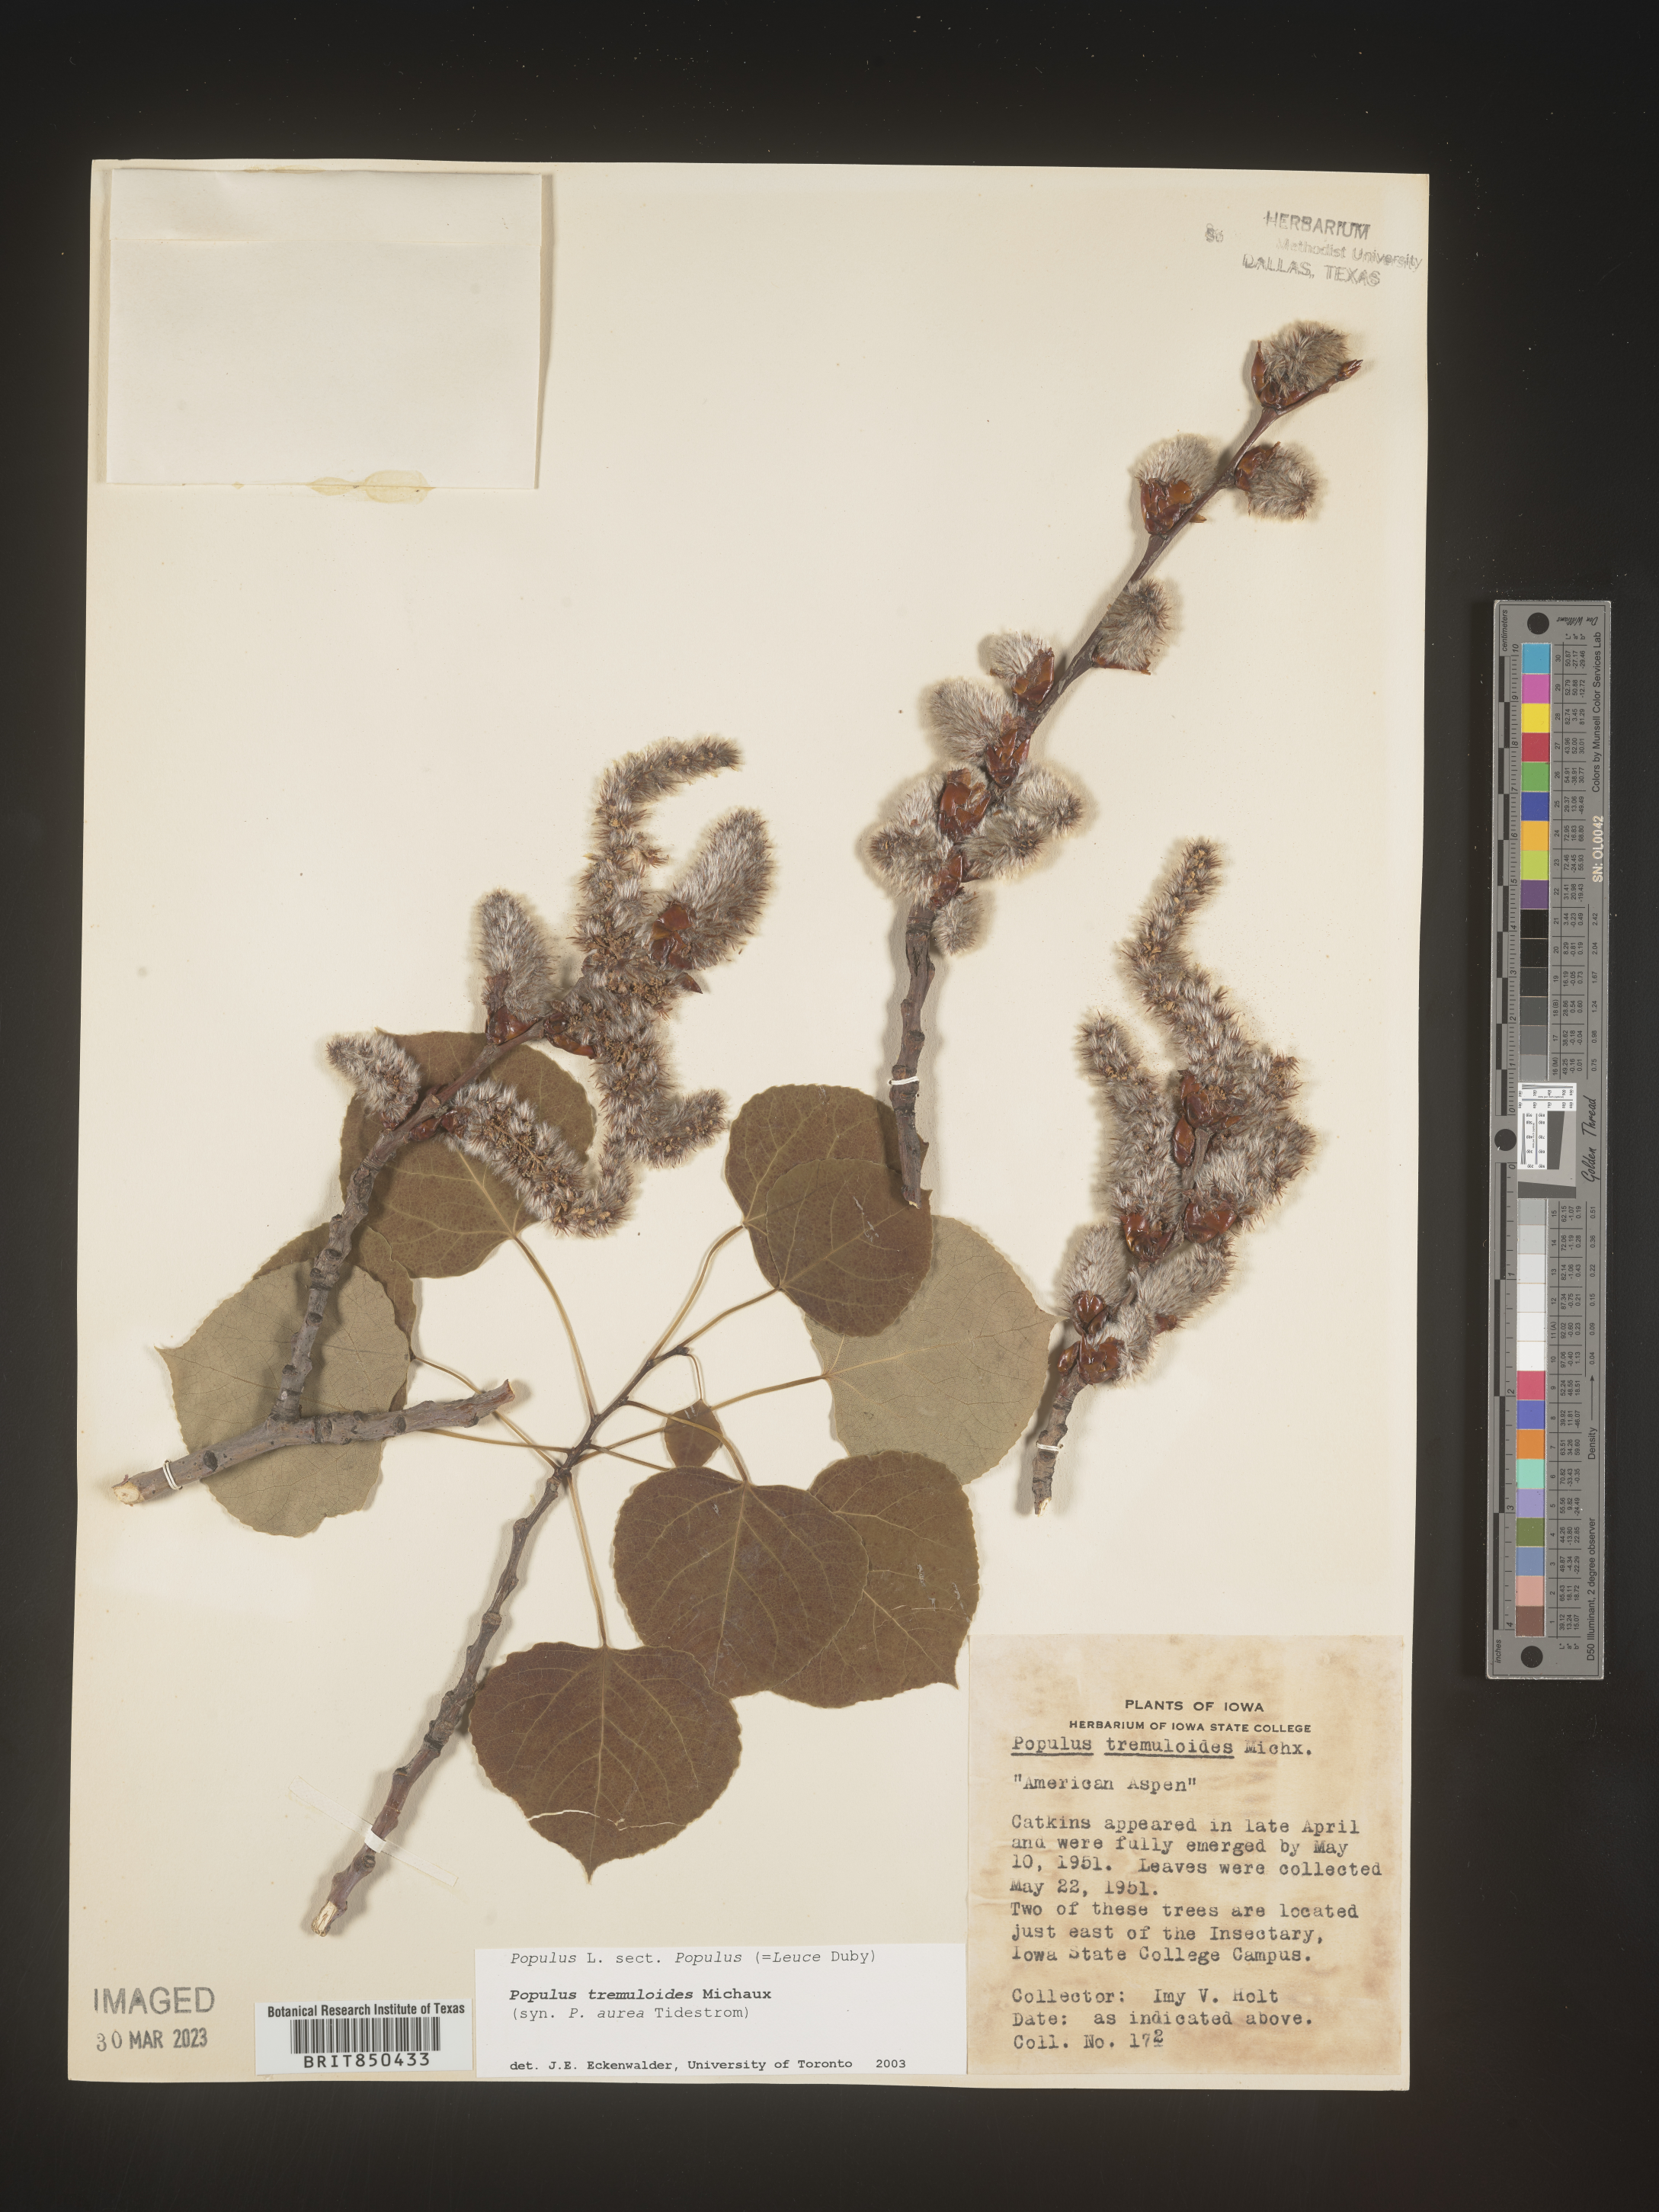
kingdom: Plantae
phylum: Tracheophyta
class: Magnoliopsida
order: Malpighiales
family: Salicaceae
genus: Populus
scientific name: Populus tremuloides
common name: Quaking aspen
